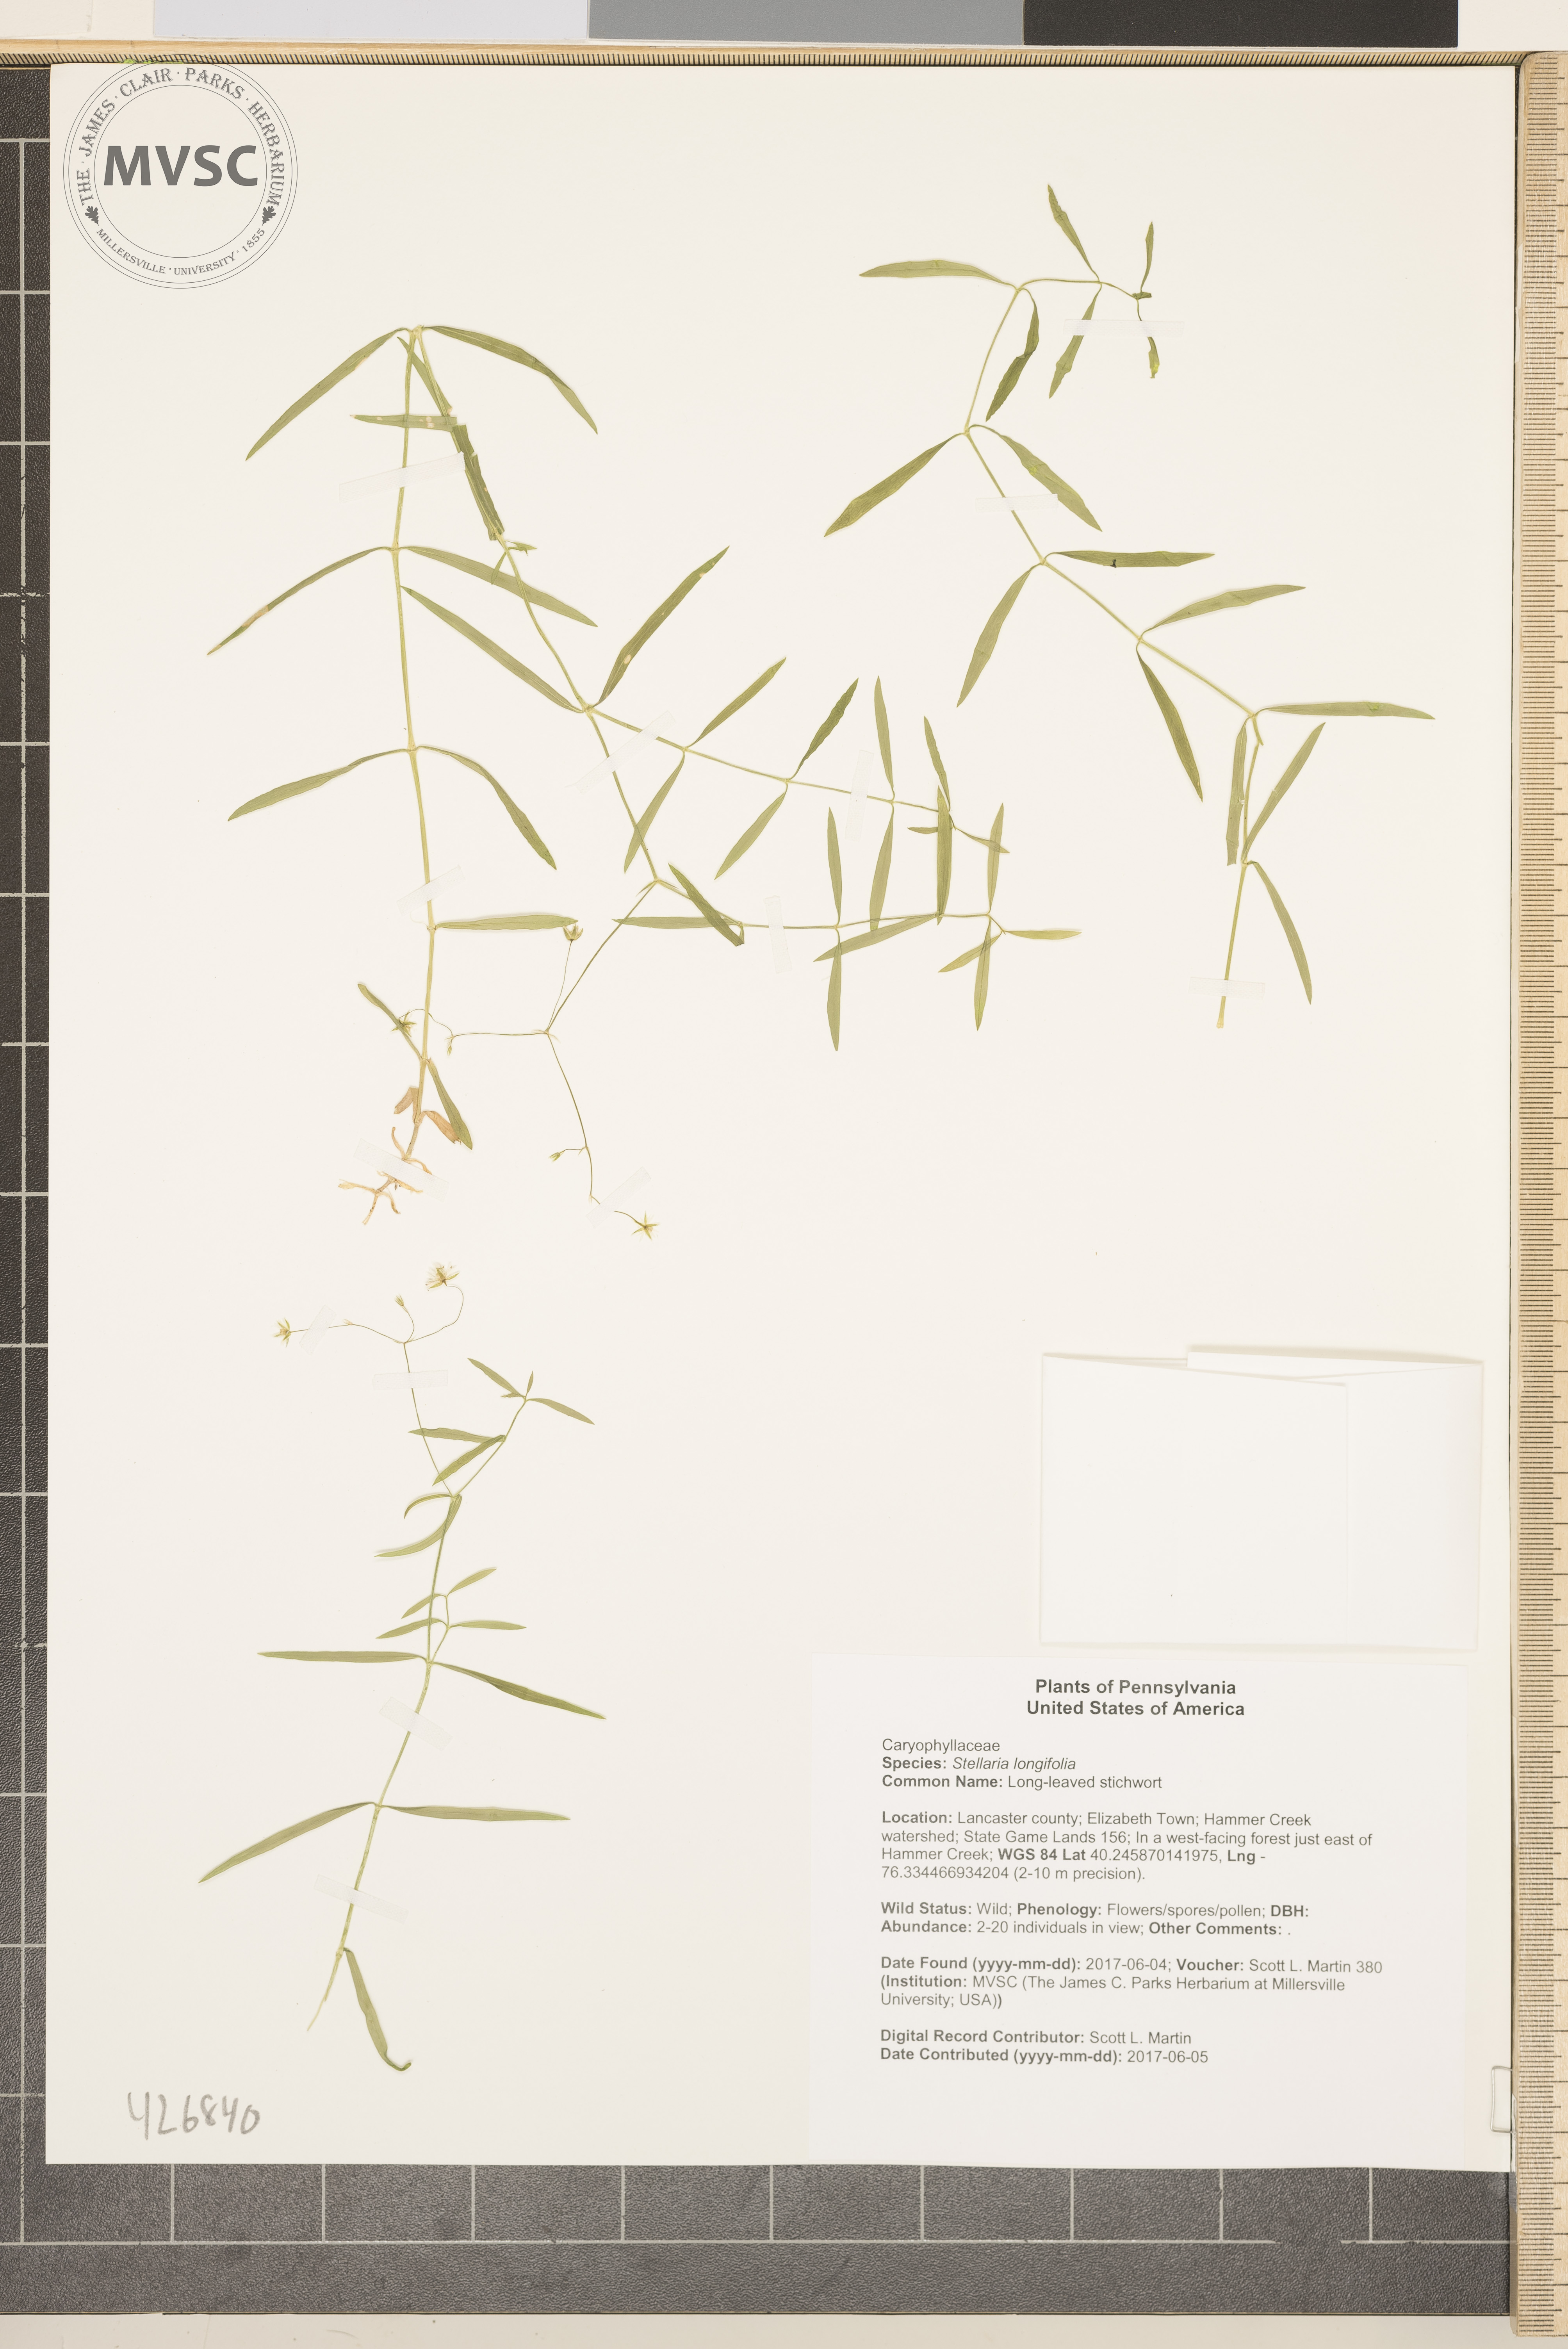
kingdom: Plantae
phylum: Tracheophyta
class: Magnoliopsida
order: Caryophyllales
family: Caryophyllaceae
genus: Stellaria
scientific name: Stellaria longifolia
